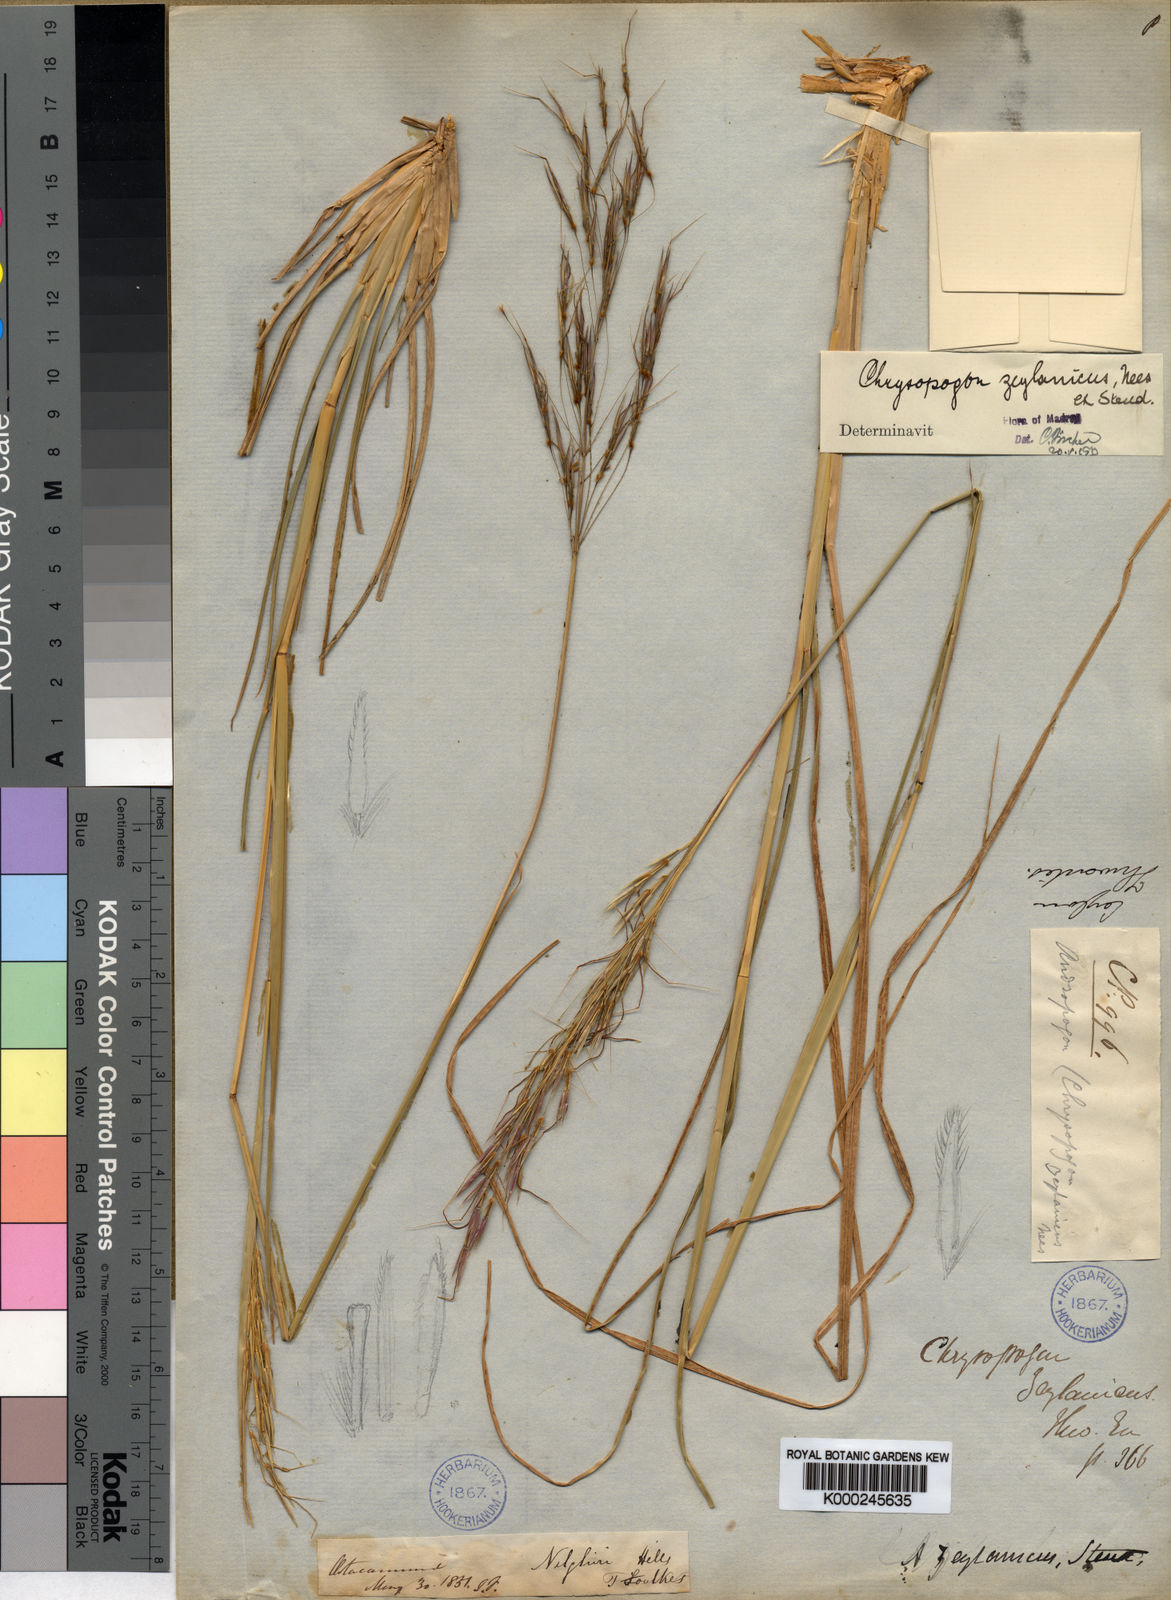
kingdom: Plantae
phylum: Tracheophyta
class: Liliopsida
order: Poales
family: Poaceae
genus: Chrysopogon
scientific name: Chrysopogon nodulibarbis
